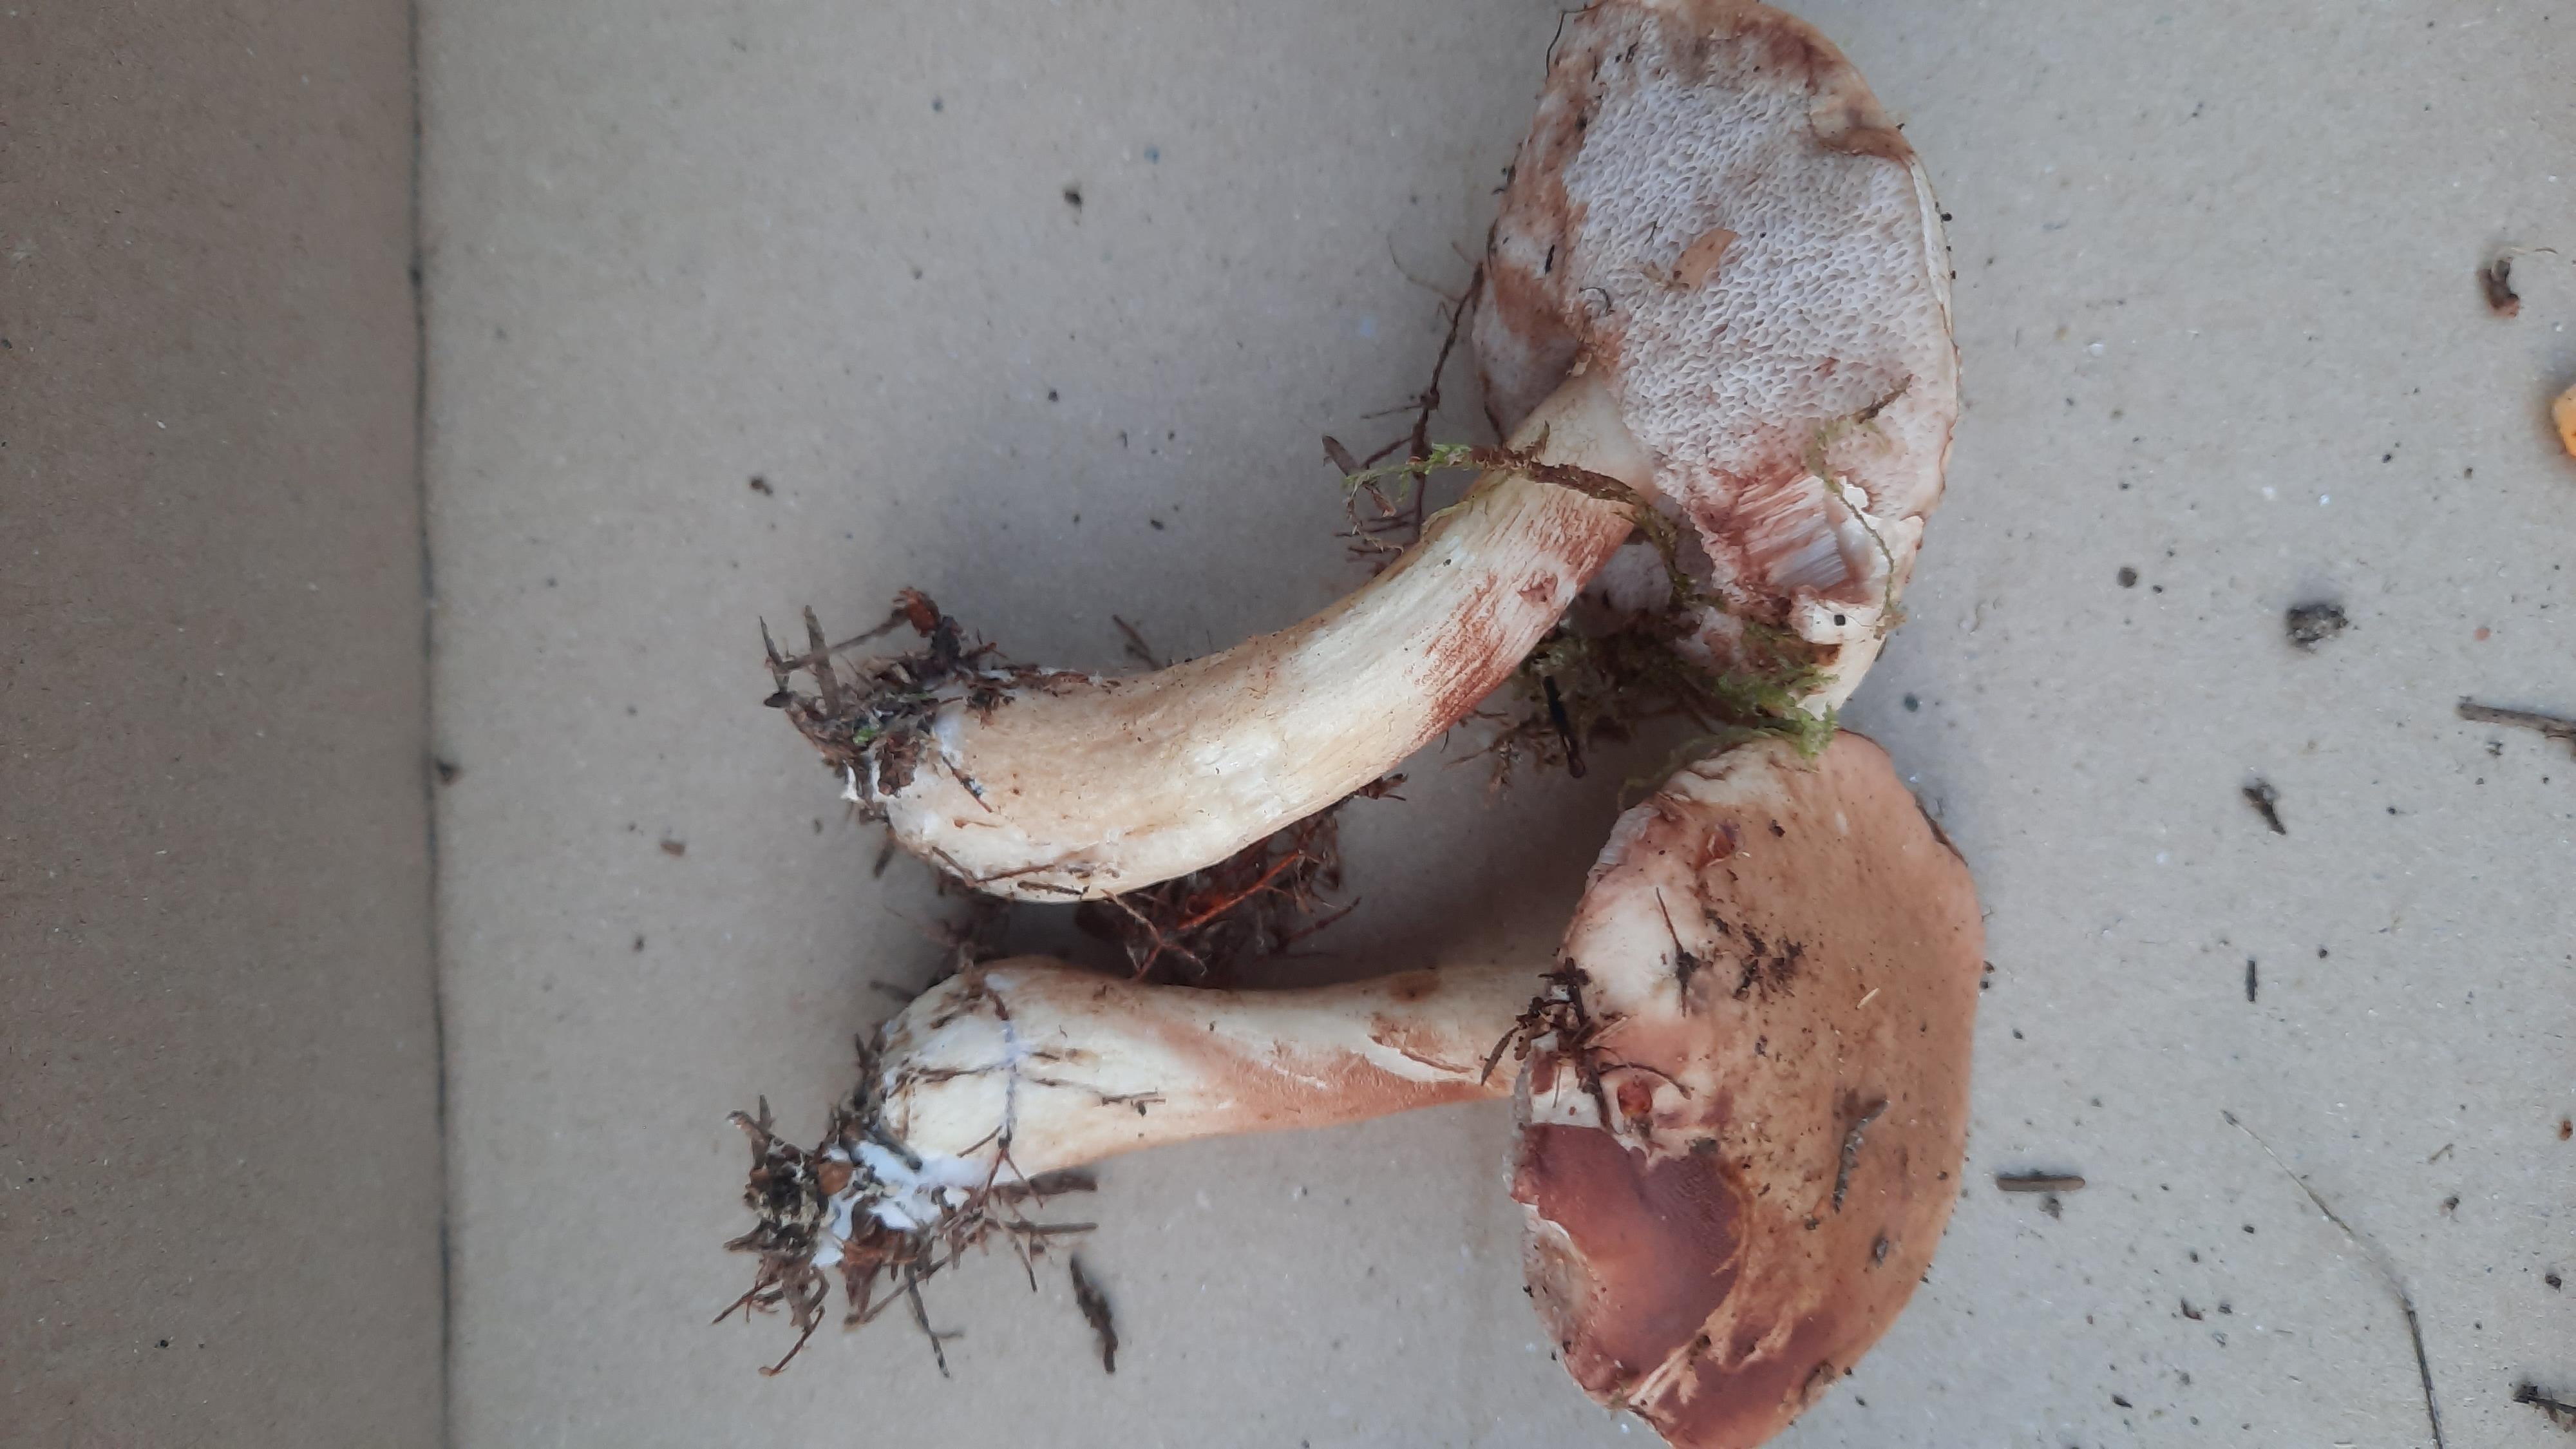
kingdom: Fungi
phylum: Basidiomycota
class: Agaricomycetes
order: Boletales
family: Boletaceae
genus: Tylopilus
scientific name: Tylopilus felleus
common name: galderørhat
